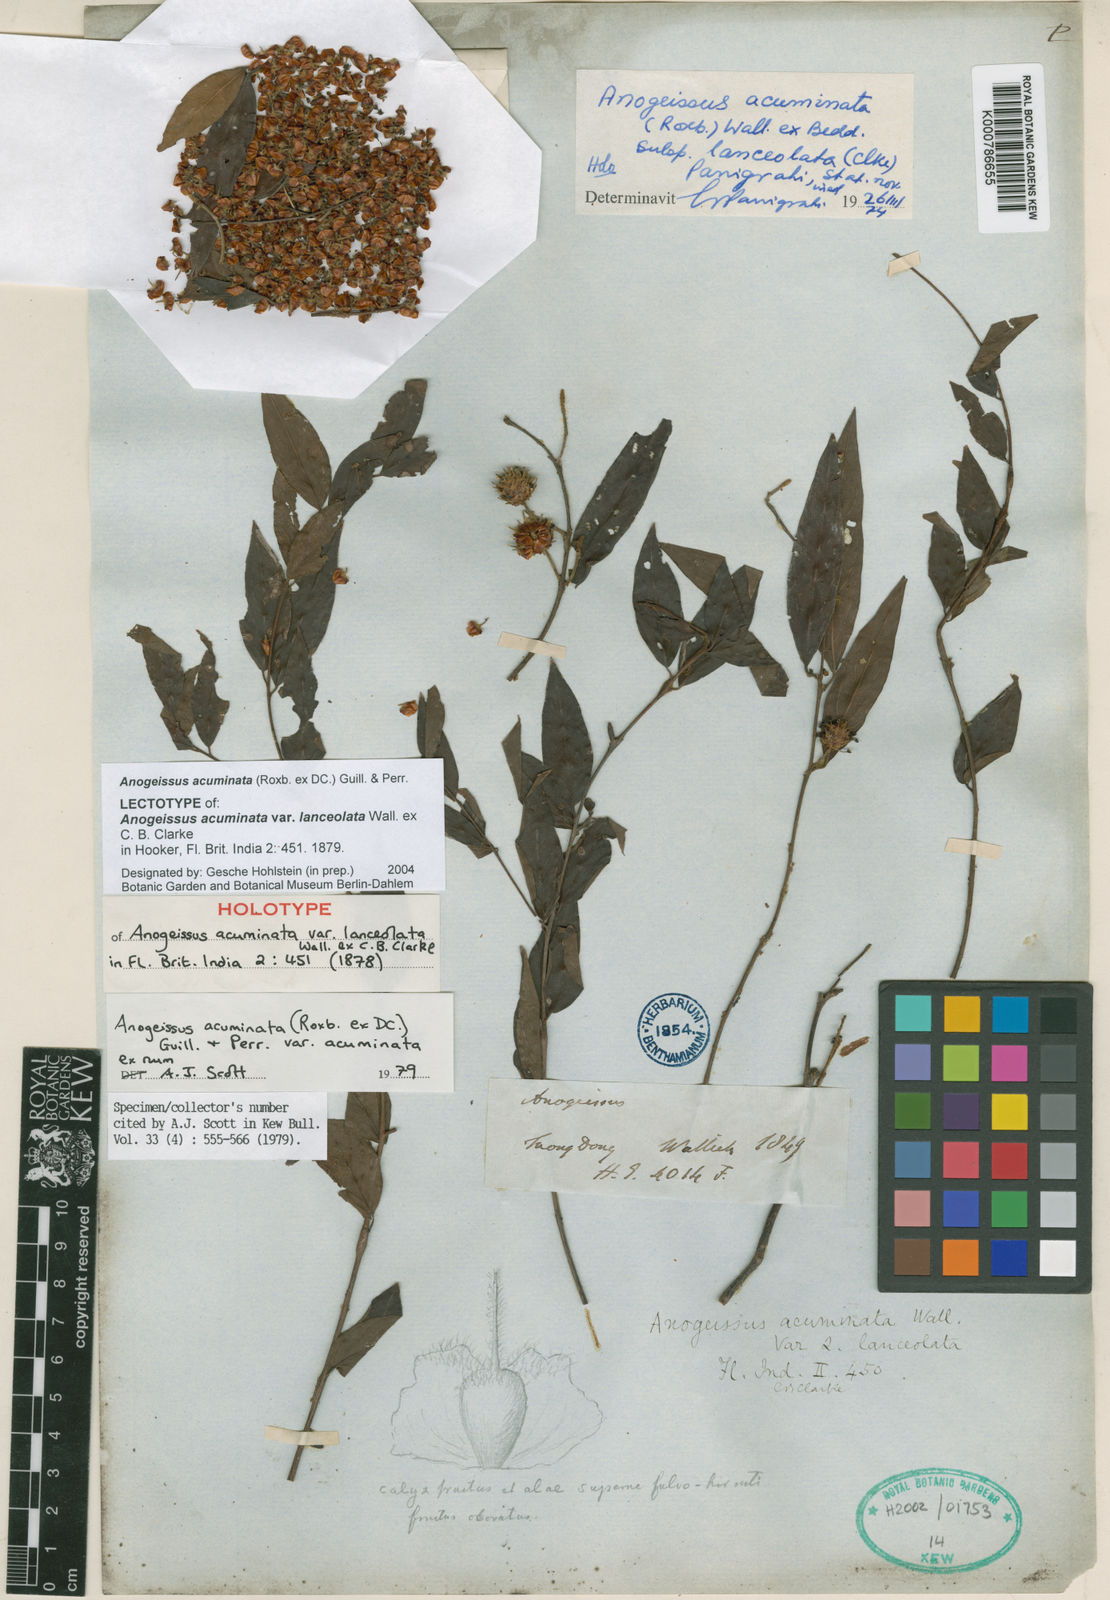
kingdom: Plantae
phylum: Tracheophyta
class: Magnoliopsida
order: Myrtales
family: Combretaceae
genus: Terminalia
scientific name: Terminalia phillyreifolia
